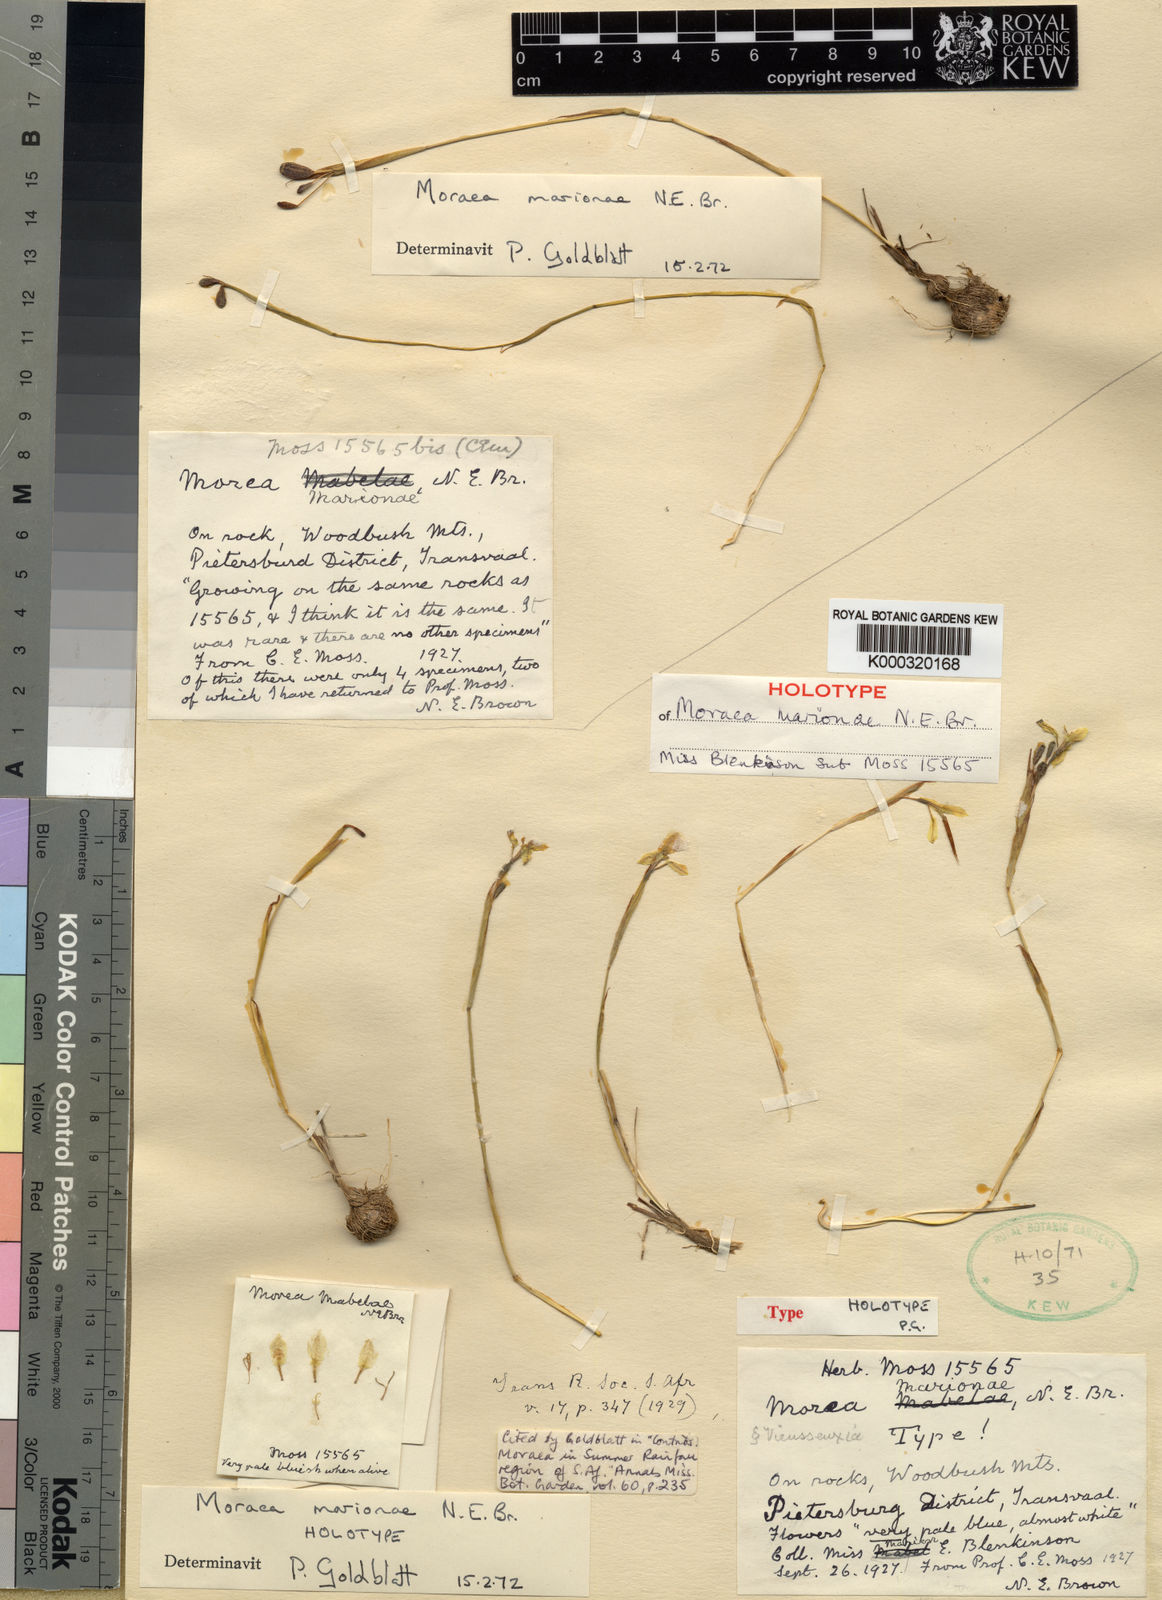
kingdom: Plantae
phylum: Tracheophyta
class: Liliopsida
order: Asparagales
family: Iridaceae
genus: Moraea
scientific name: Moraea marionae
